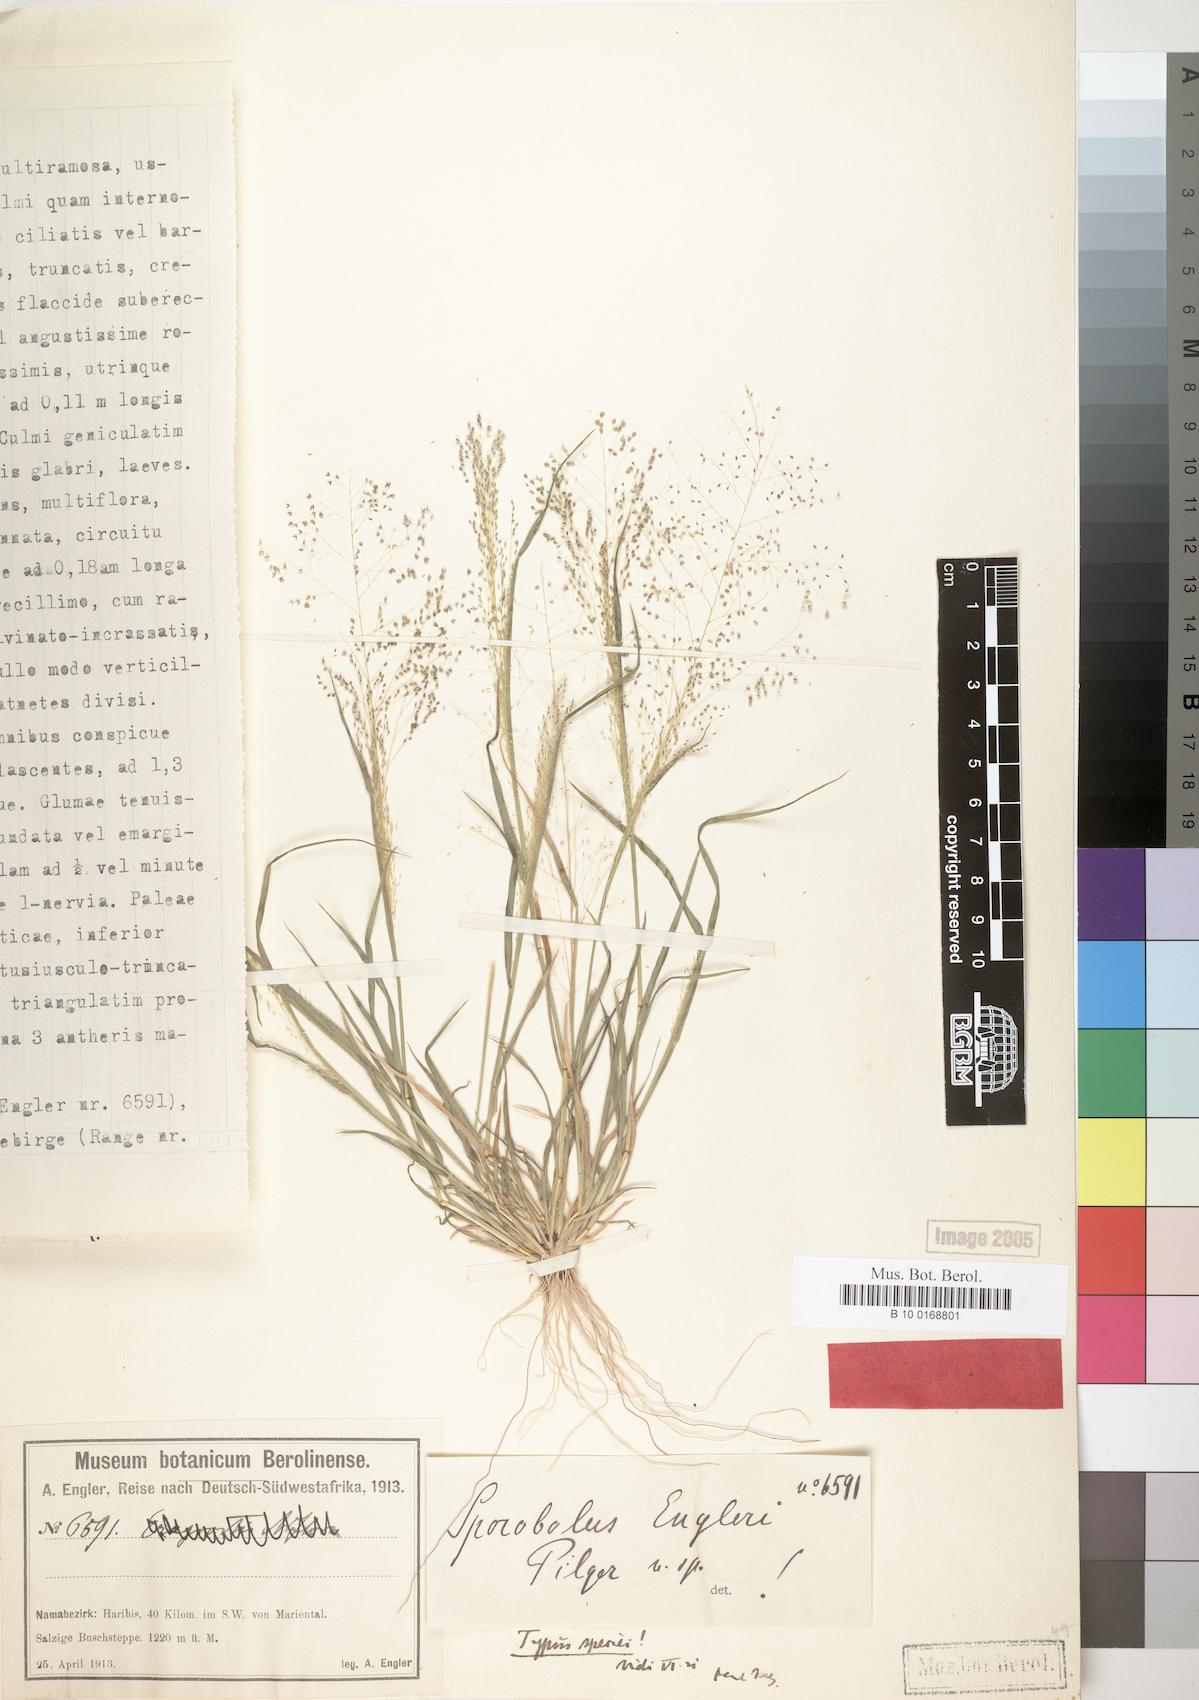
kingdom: Plantae
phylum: Tracheophyta
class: Liliopsida
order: Poales
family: Poaceae
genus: Sporobolus
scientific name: Sporobolus engleri
